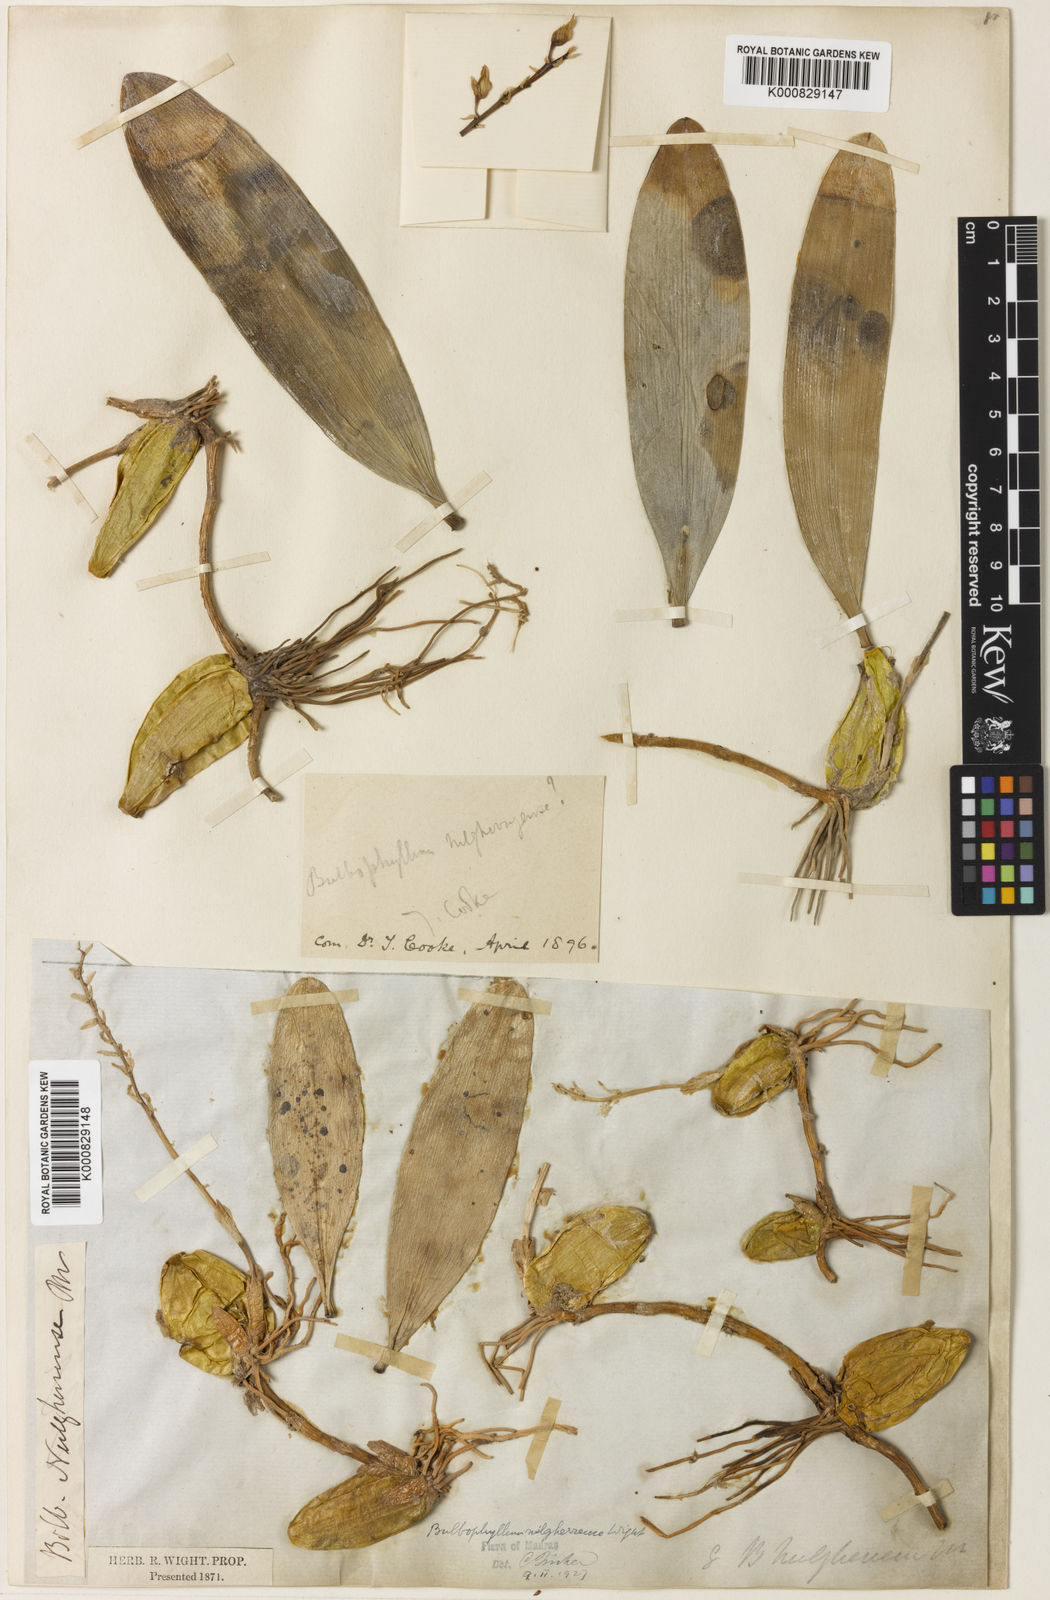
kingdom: Plantae
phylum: Tracheophyta
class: Liliopsida
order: Asparagales
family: Orchidaceae
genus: Bulbophyllum
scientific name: Bulbophyllum sterile
